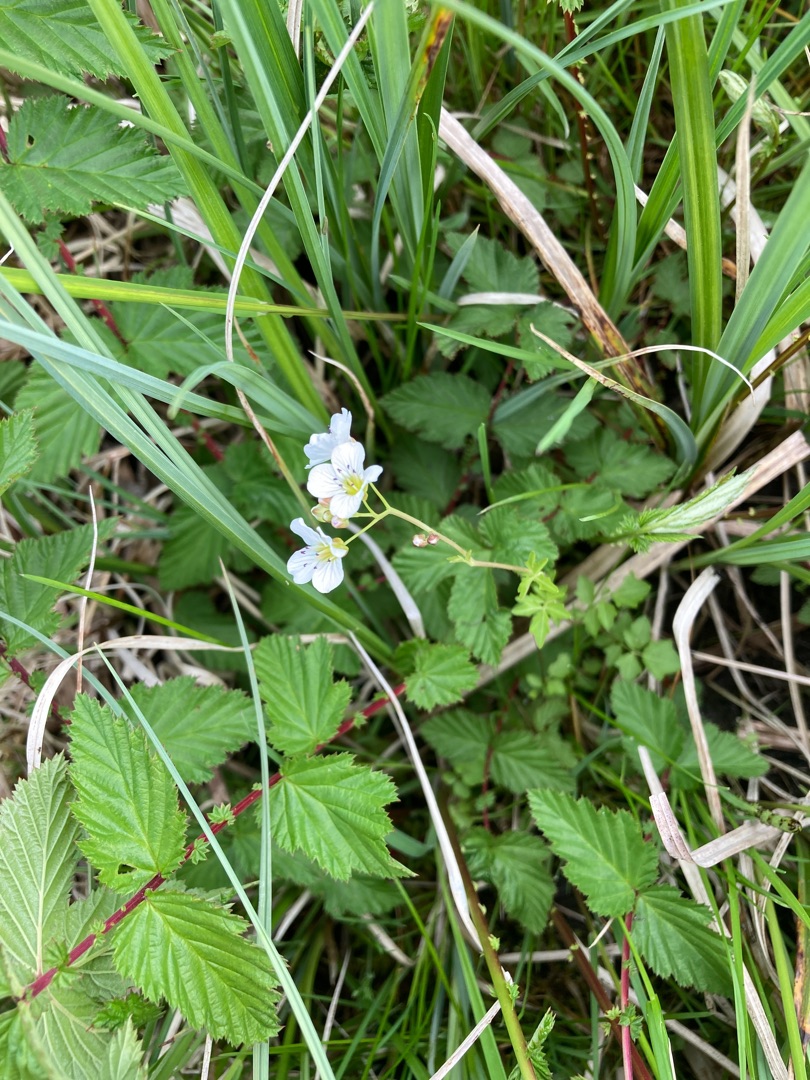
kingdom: Plantae
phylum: Tracheophyta
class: Magnoliopsida
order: Brassicales
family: Brassicaceae
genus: Cardamine
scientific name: Cardamine amara
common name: Vandkarse
